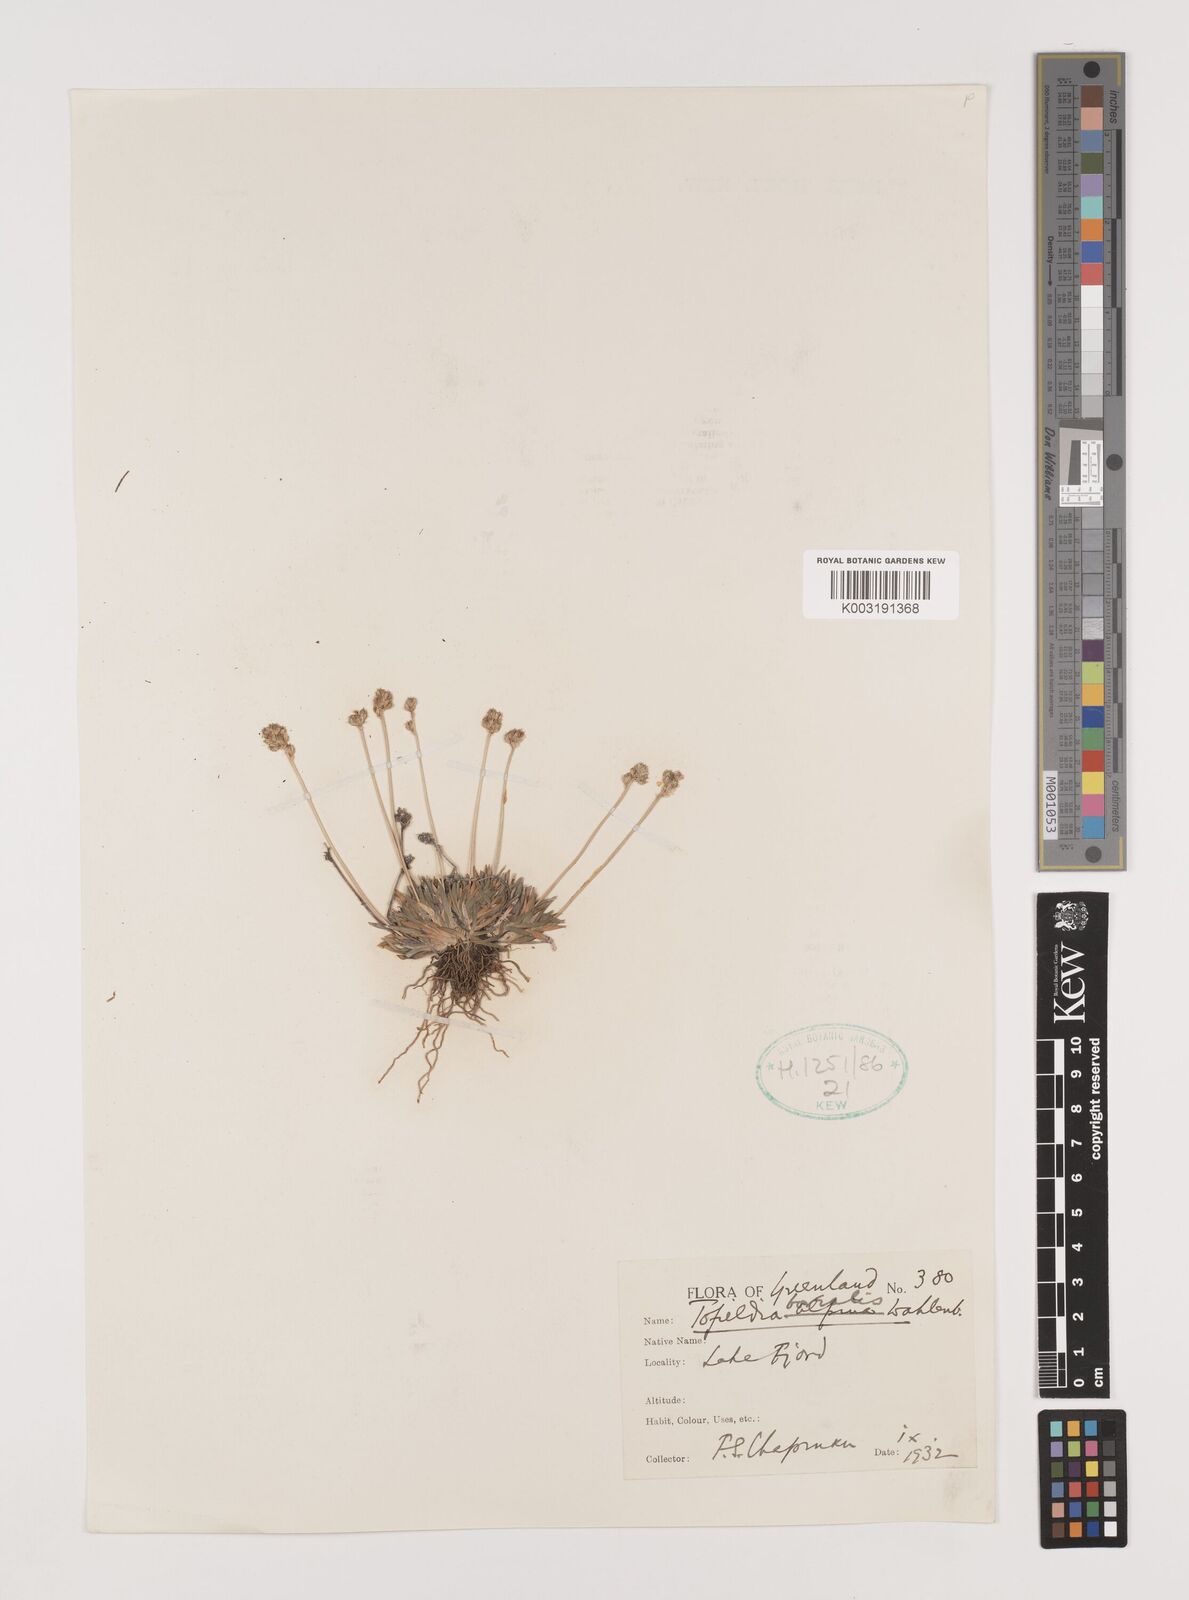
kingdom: Plantae
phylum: Tracheophyta
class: Liliopsida
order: Alismatales
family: Tofieldiaceae
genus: Tofieldia
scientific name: Tofieldia pusilla
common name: Scottish false asphodel
